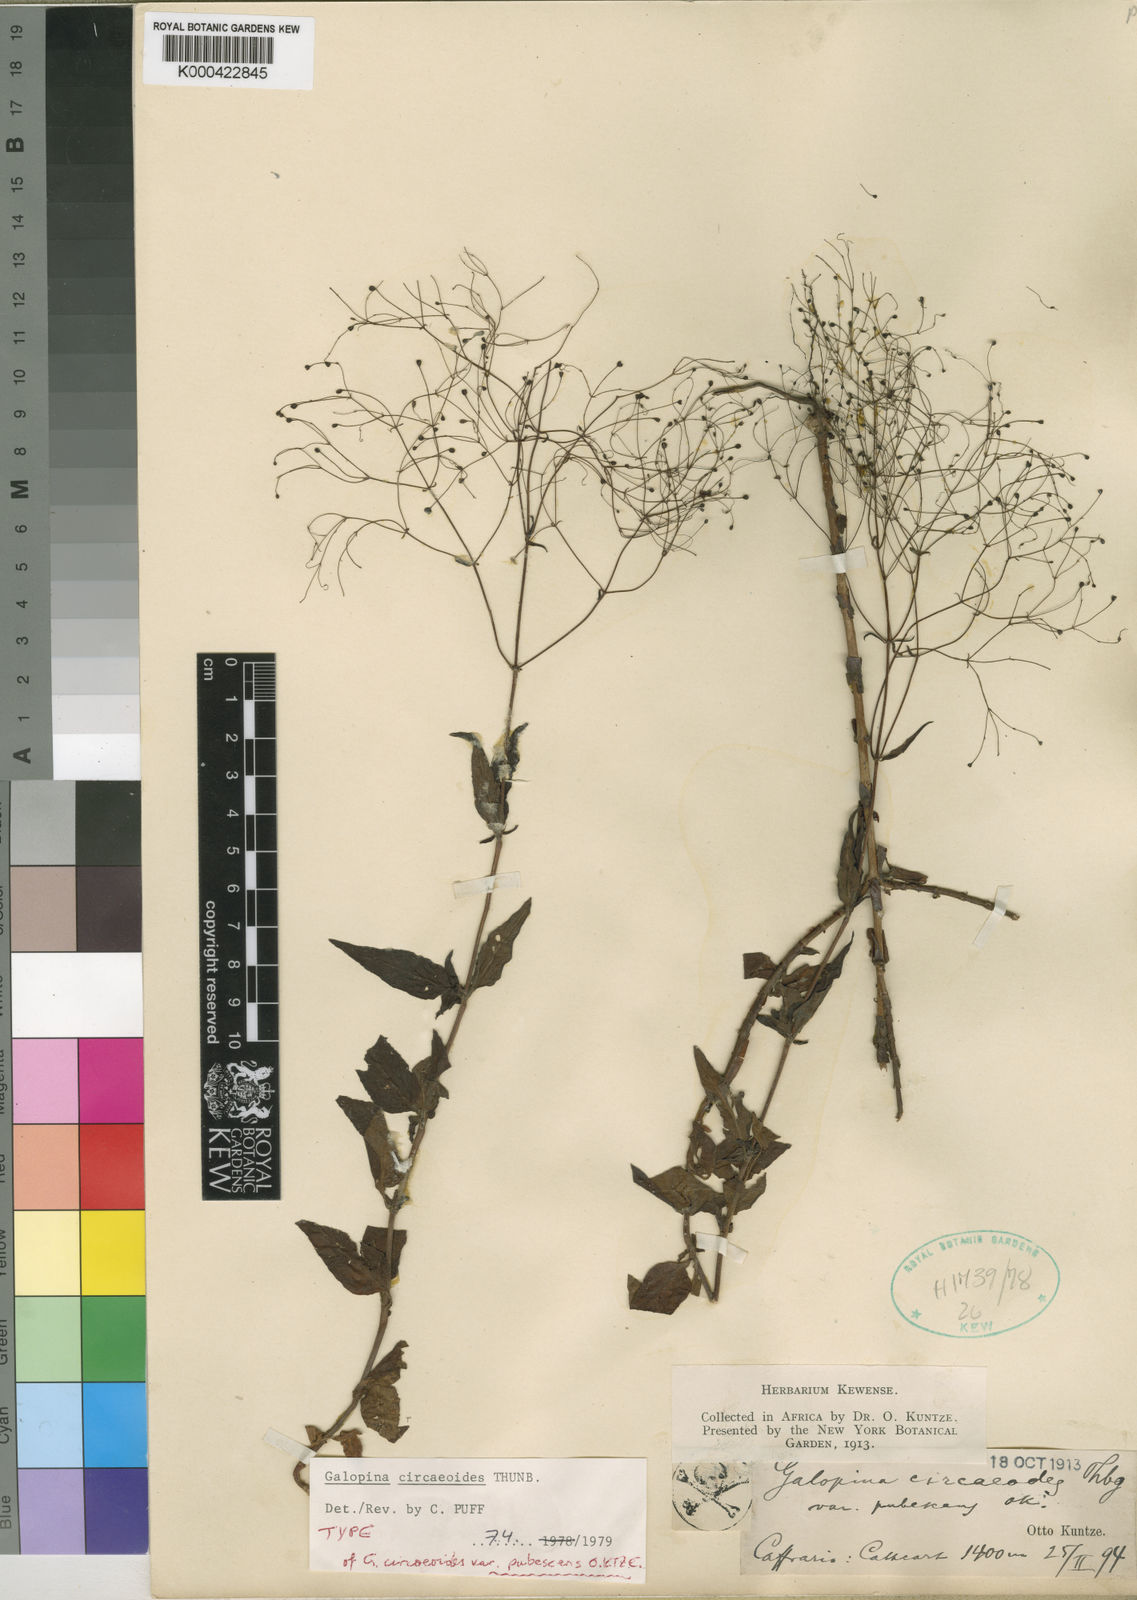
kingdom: Plantae
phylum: Tracheophyta
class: Magnoliopsida
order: Gentianales
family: Rubiaceae
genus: Galopina
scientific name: Galopina circaeoides
